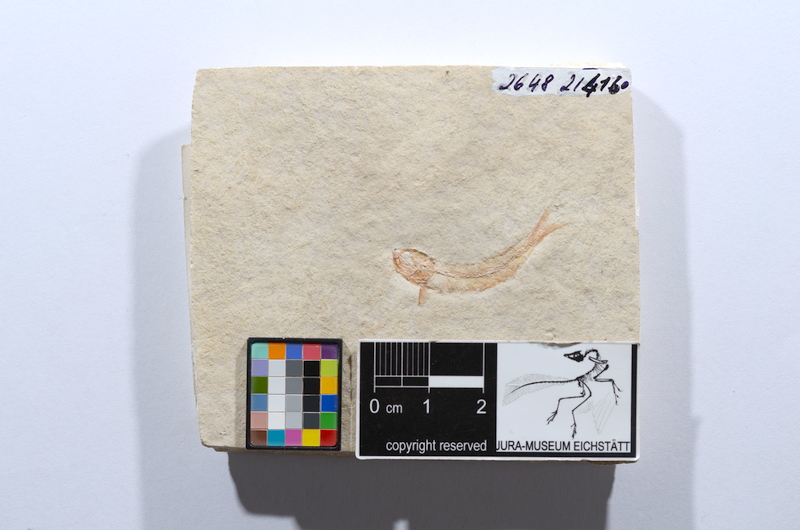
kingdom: Animalia
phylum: Chordata
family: Allothrissopidae
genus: Allothrissops
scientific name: Allothrissops mesogaster
